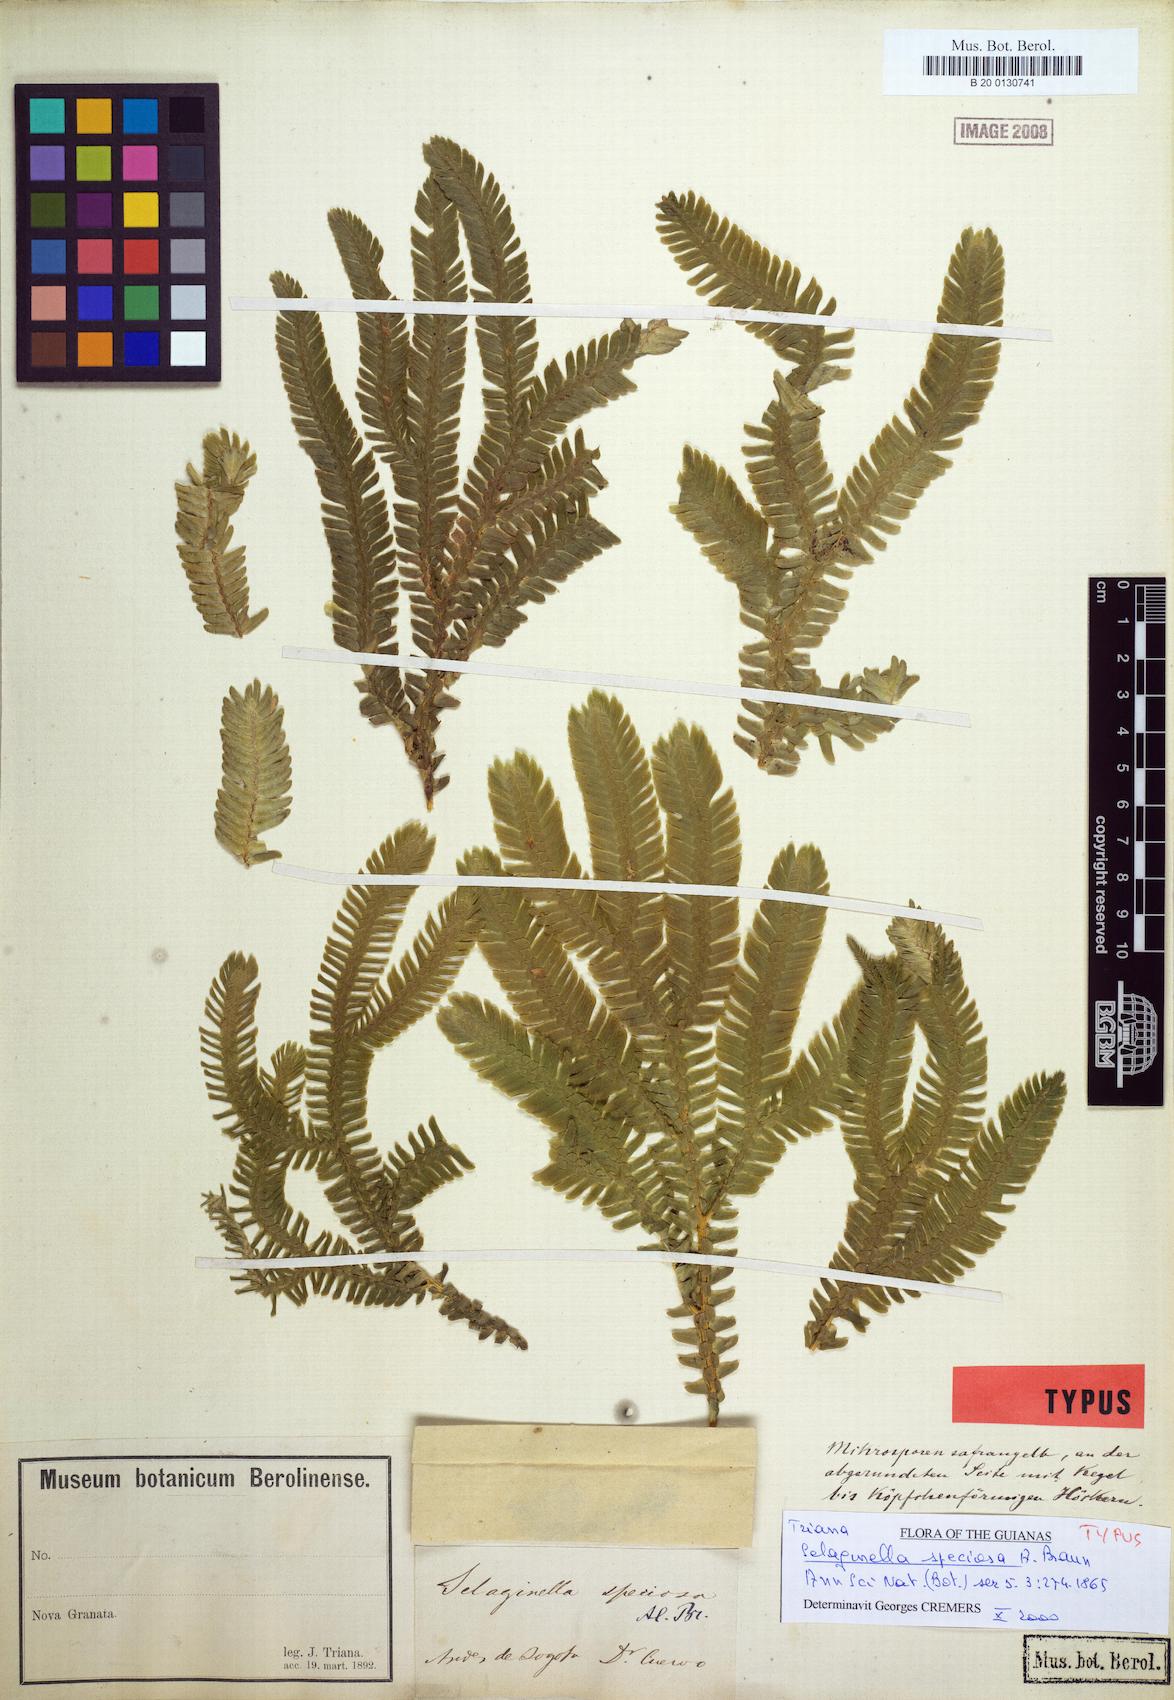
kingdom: Plantae
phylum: Tracheophyta
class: Lycopodiopsida
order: Selaginellales
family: Selaginellaceae
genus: Selaginella
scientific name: Selaginella speciosa
